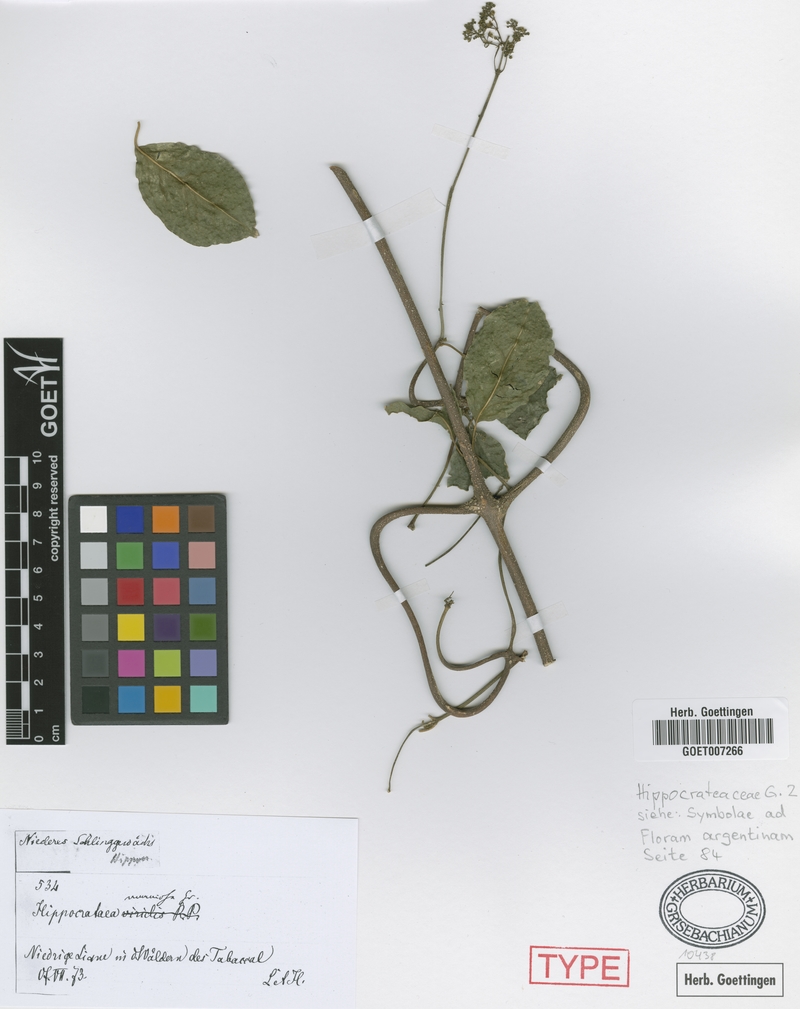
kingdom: Plantae
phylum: Tracheophyta
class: Magnoliopsida
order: Celastrales
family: Celastraceae
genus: Pristimera
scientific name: Pristimera celastroides
